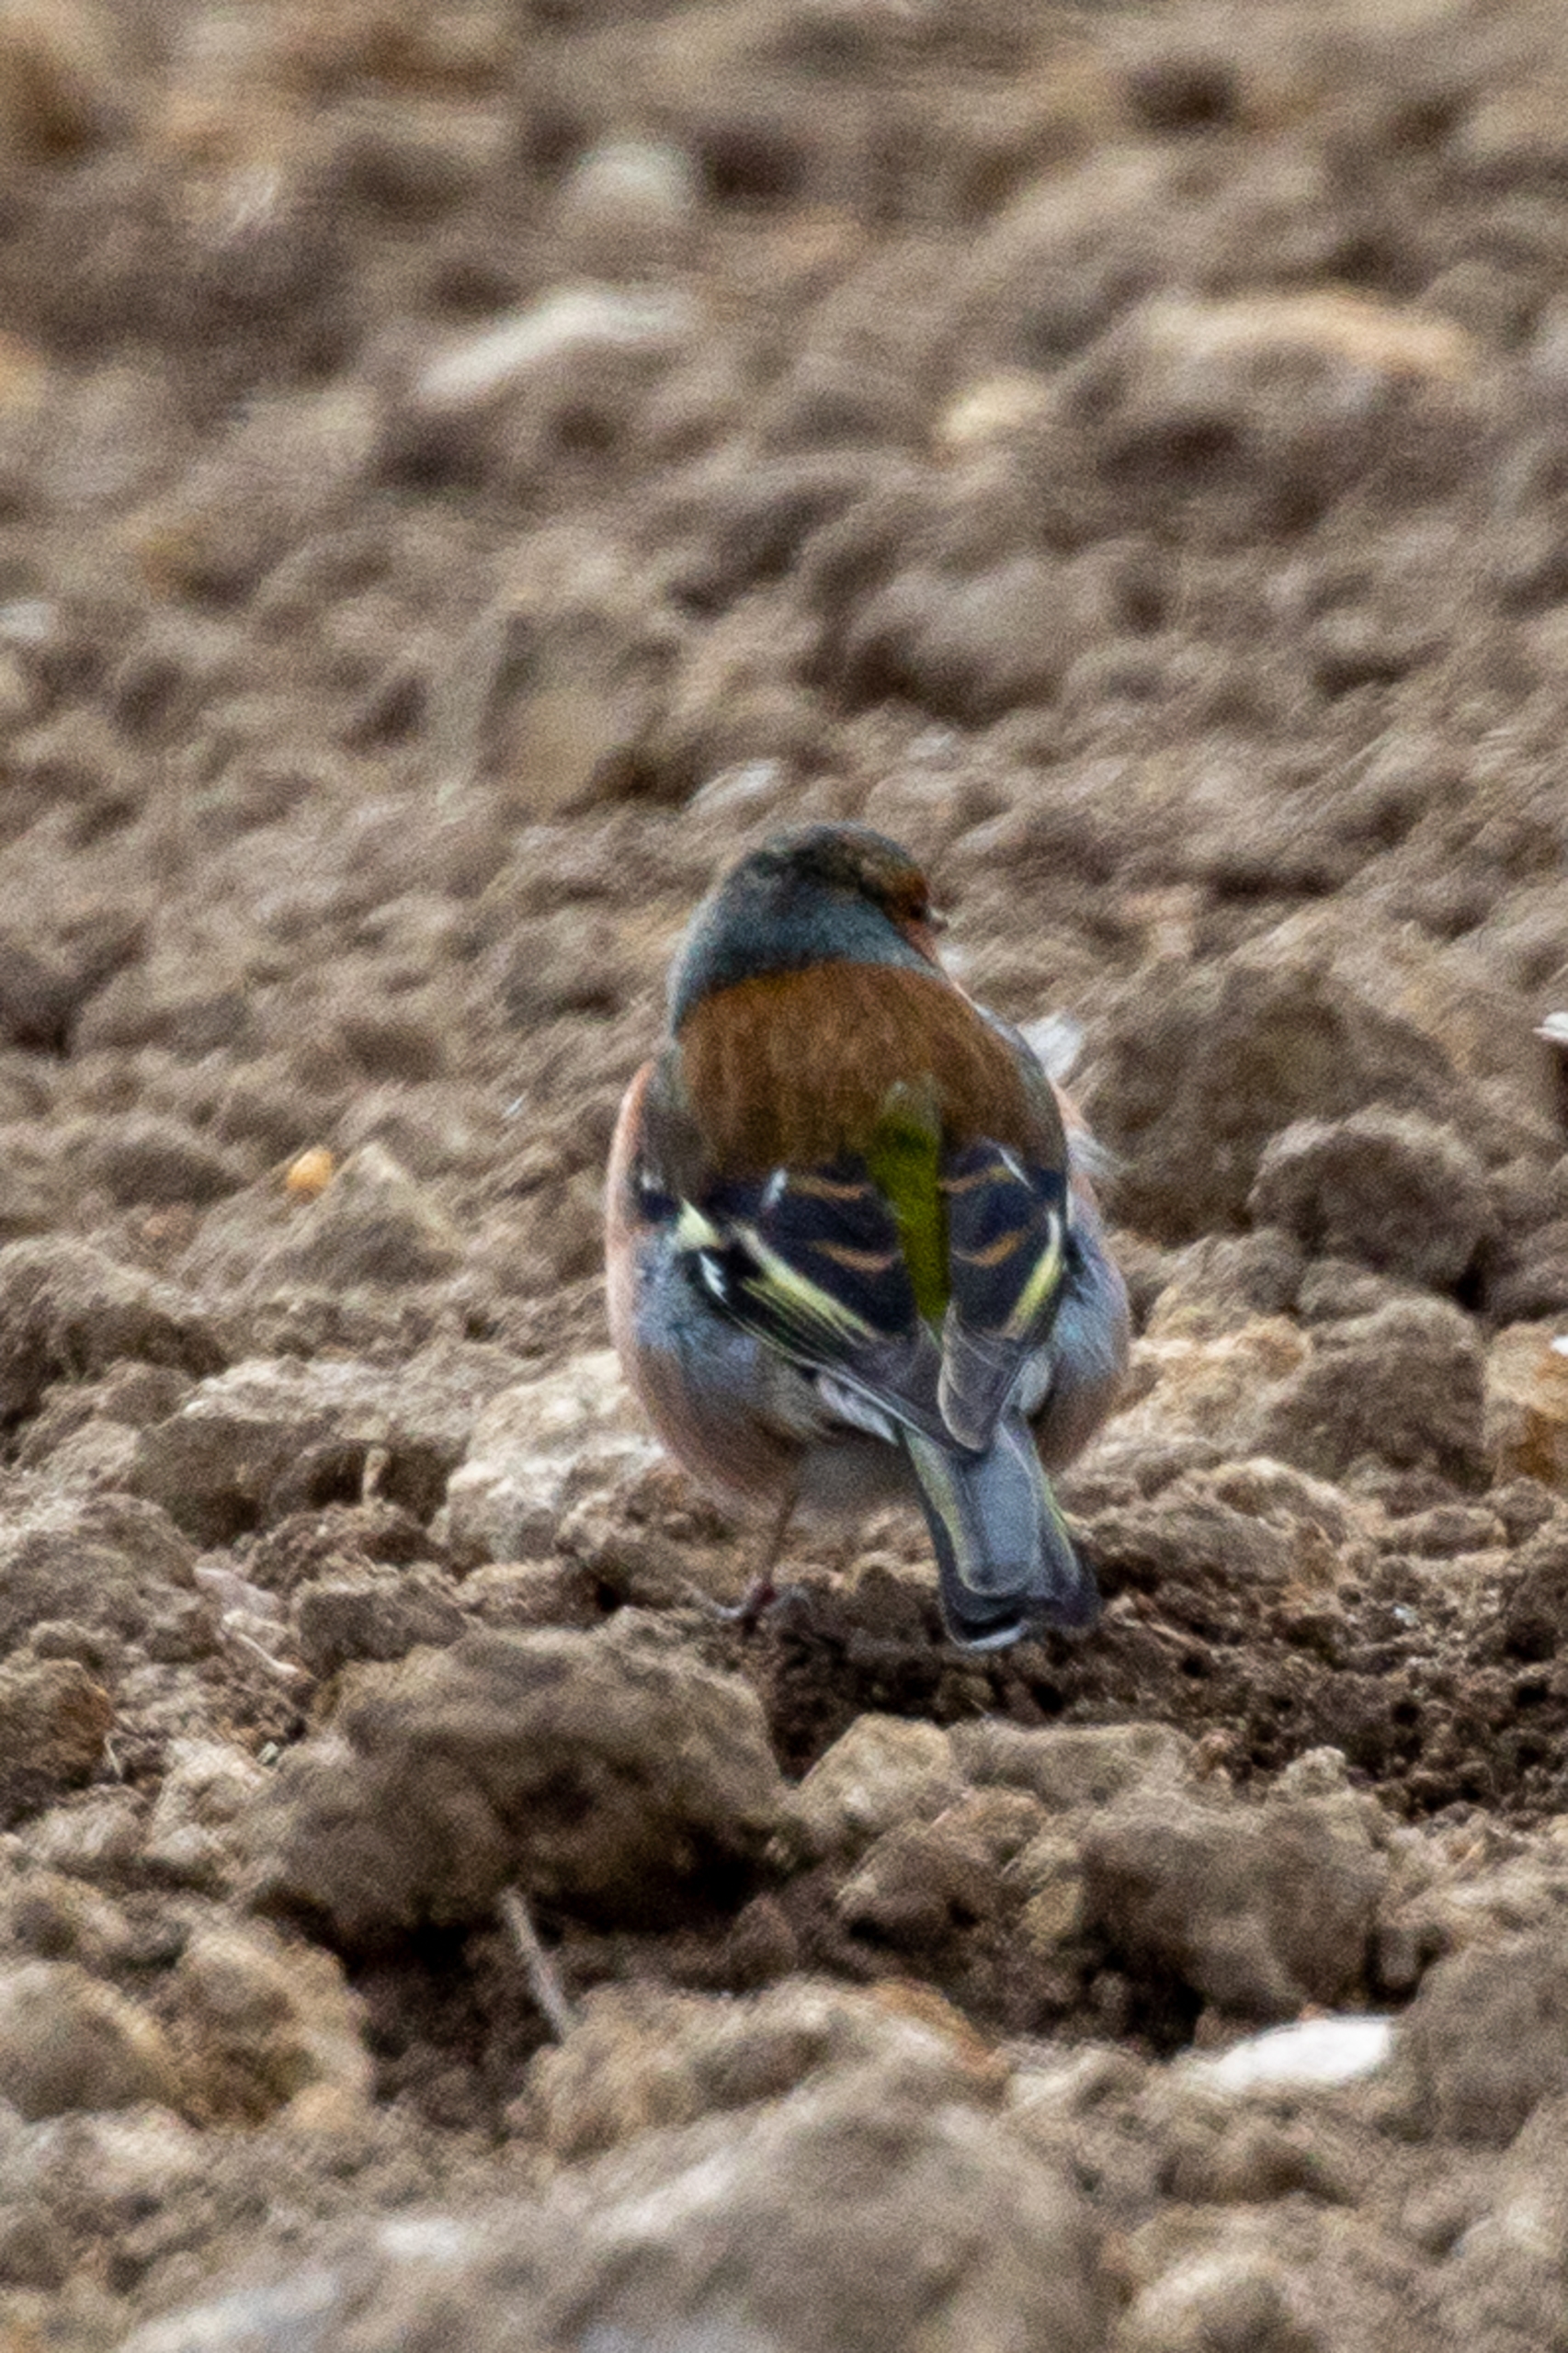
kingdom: Animalia
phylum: Chordata
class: Aves
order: Passeriformes
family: Fringillidae
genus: Fringilla
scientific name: Fringilla coelebs
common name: Bogfinke
